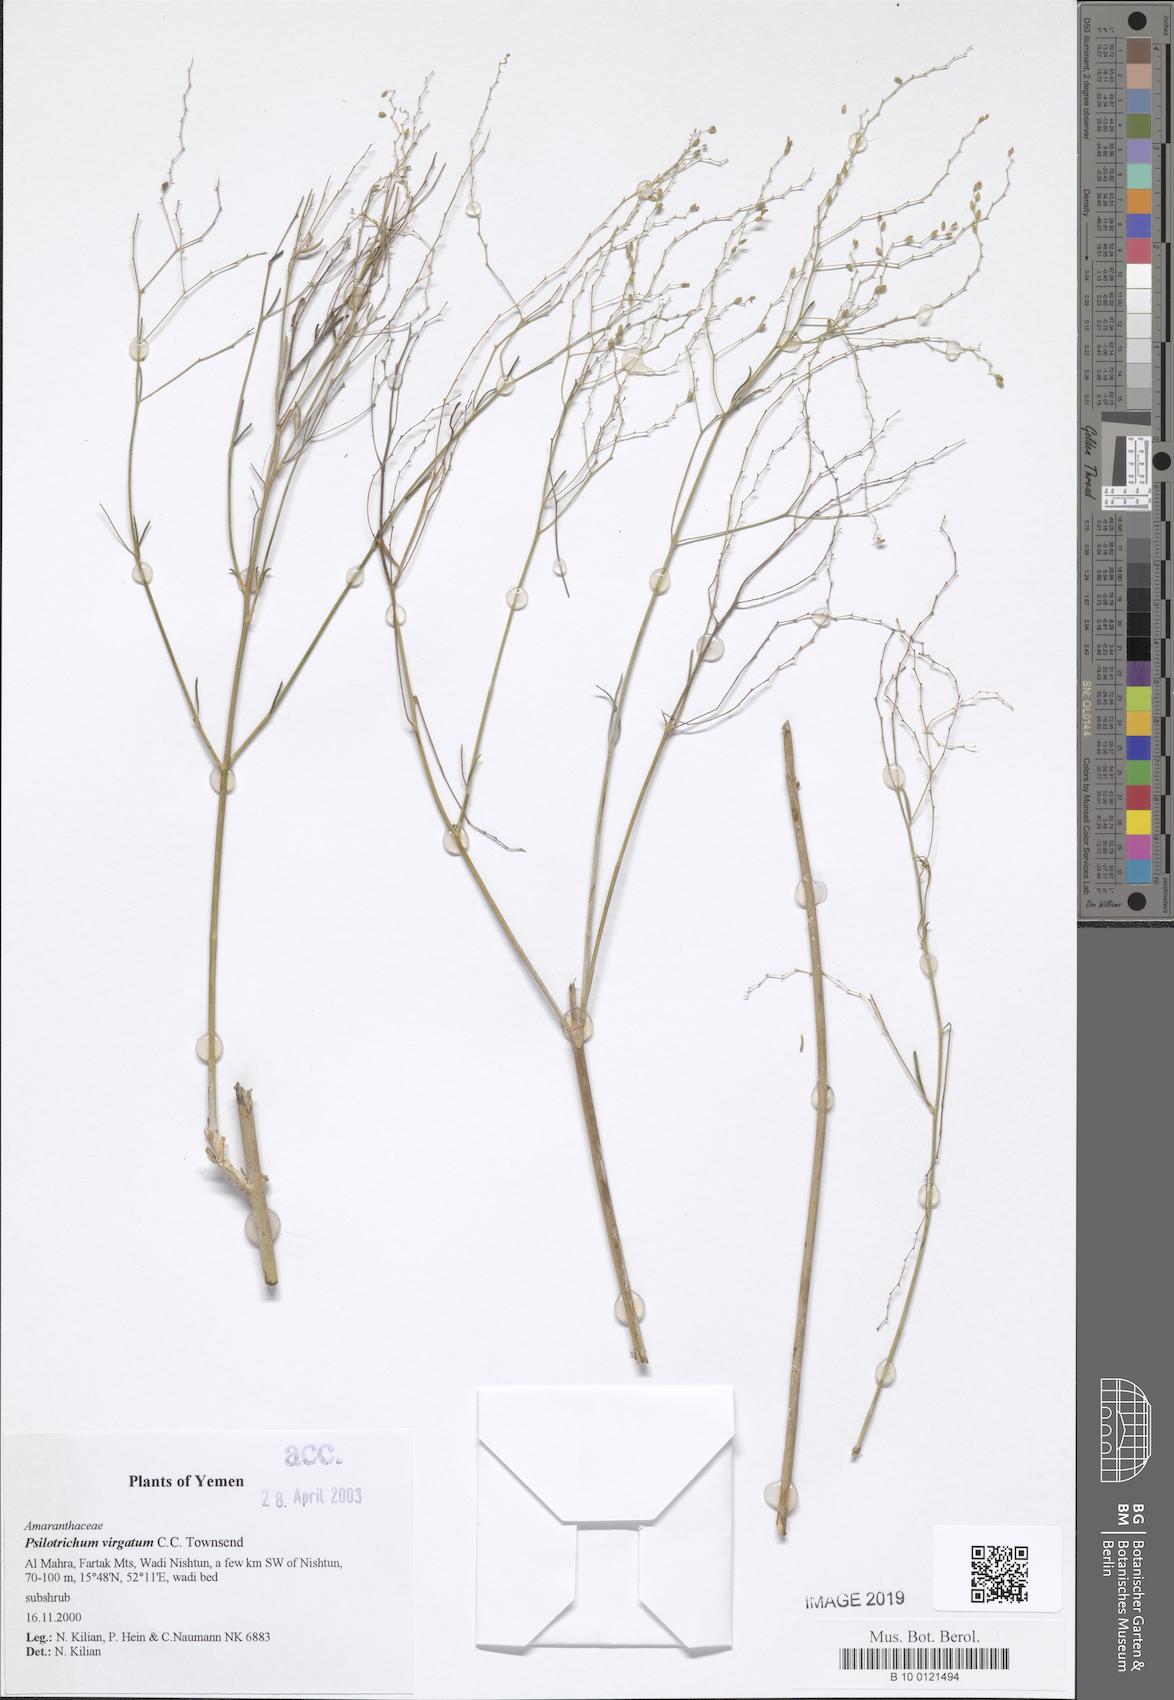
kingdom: Plantae
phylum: Tracheophyta
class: Magnoliopsida
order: Caryophyllales
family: Amaranthaceae
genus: Psilotrichum
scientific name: Psilotrichum virgatum
